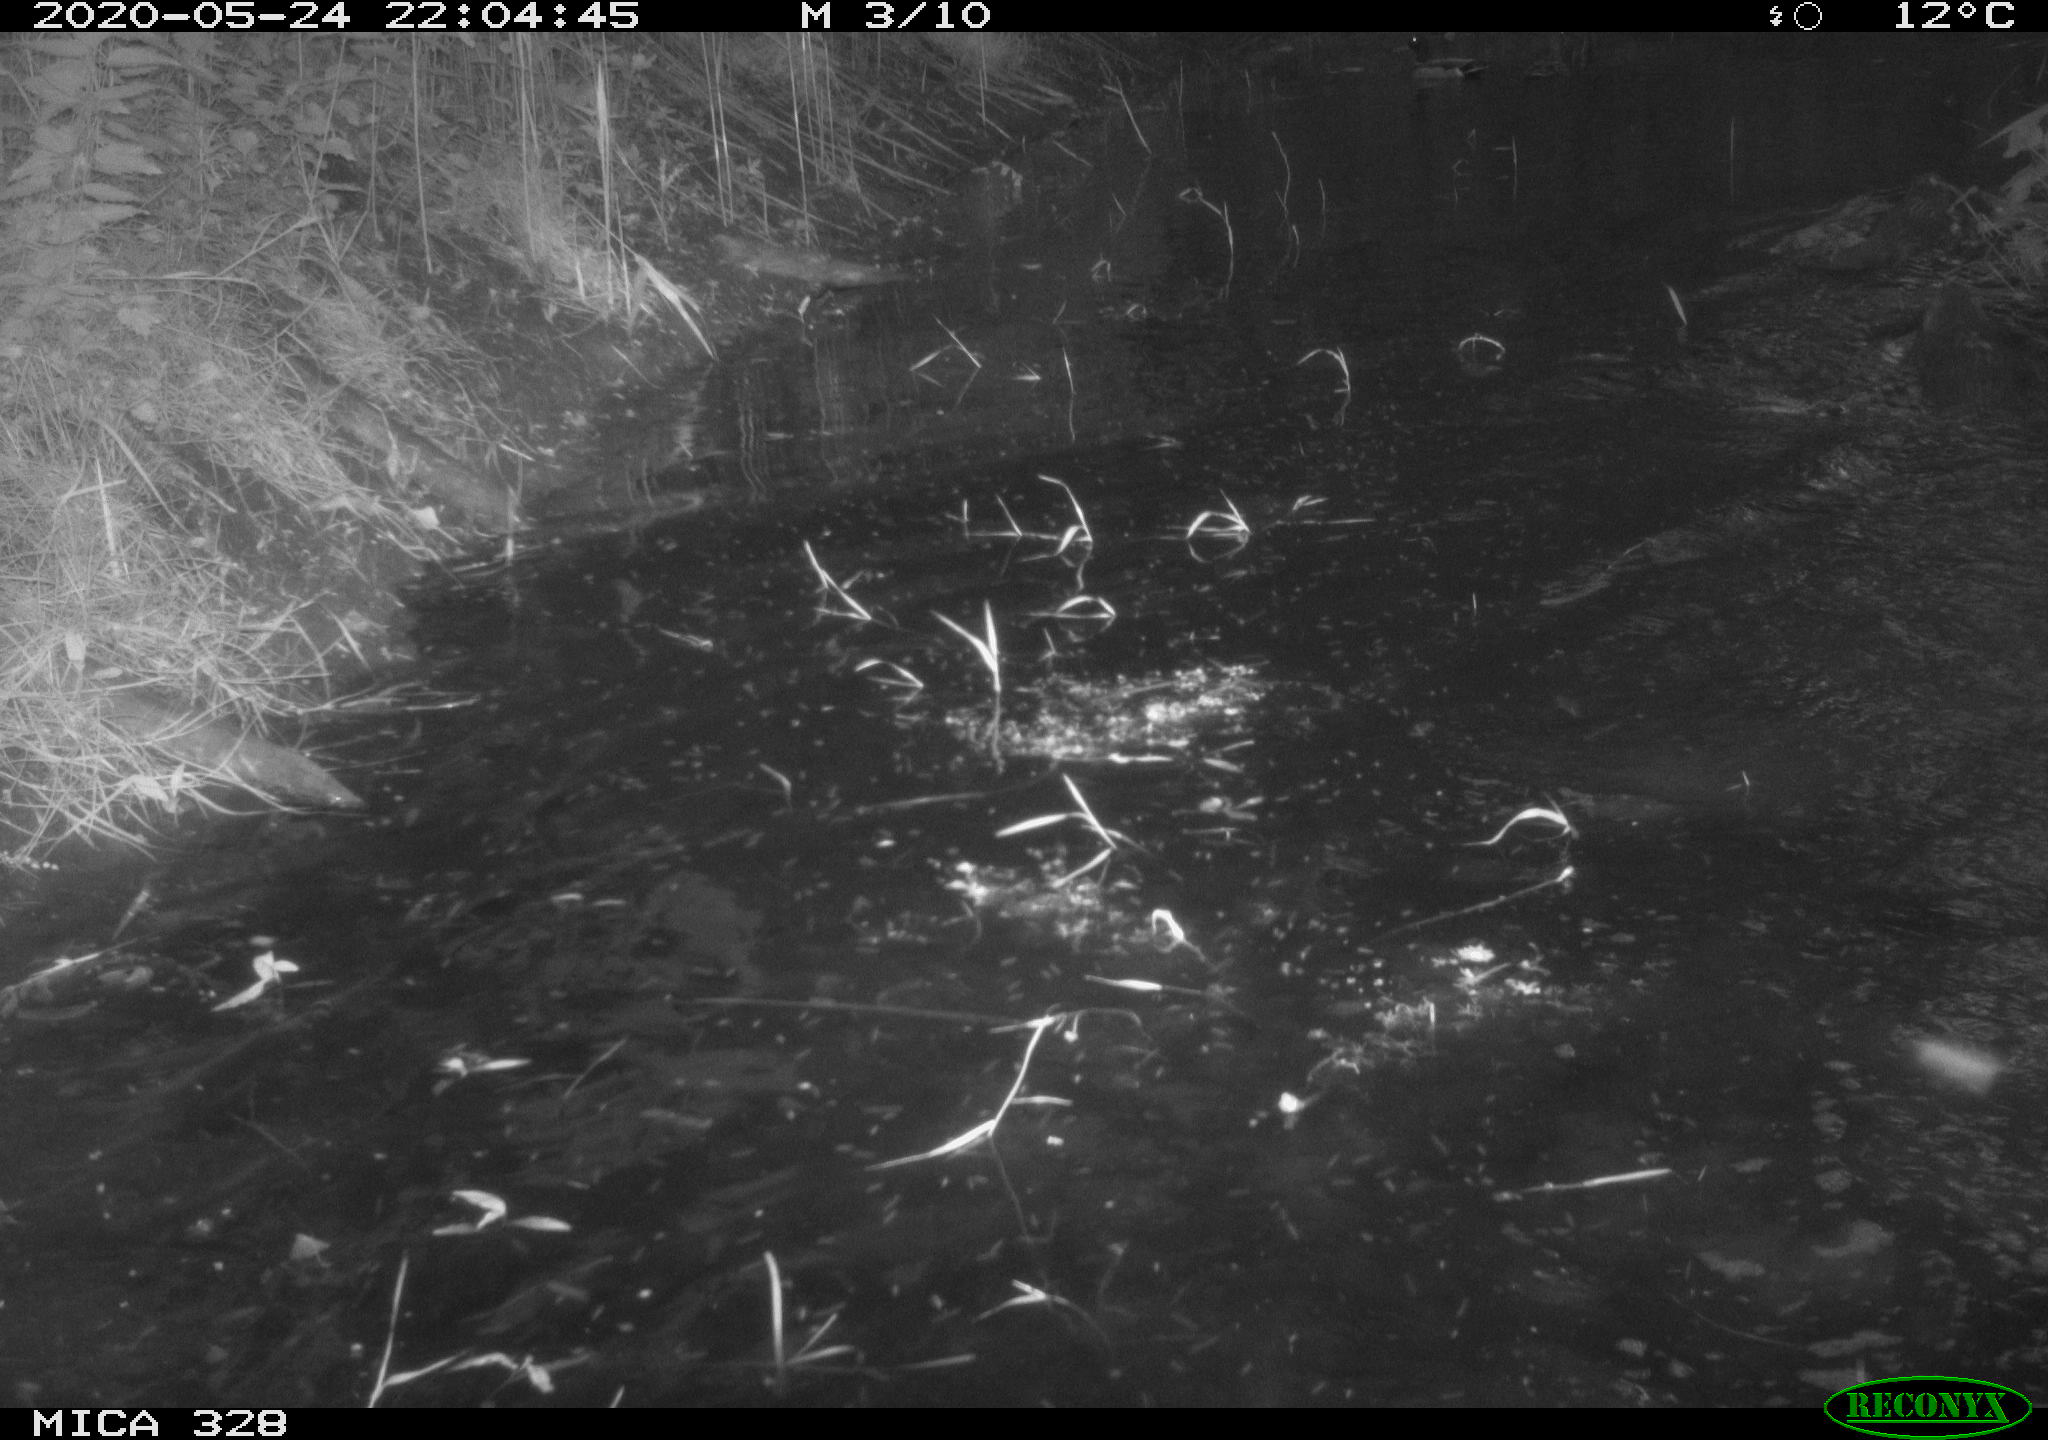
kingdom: Animalia
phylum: Chordata
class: Mammalia
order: Rodentia
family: Myocastoridae
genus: Myocastor
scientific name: Myocastor coypus
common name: Coypu
